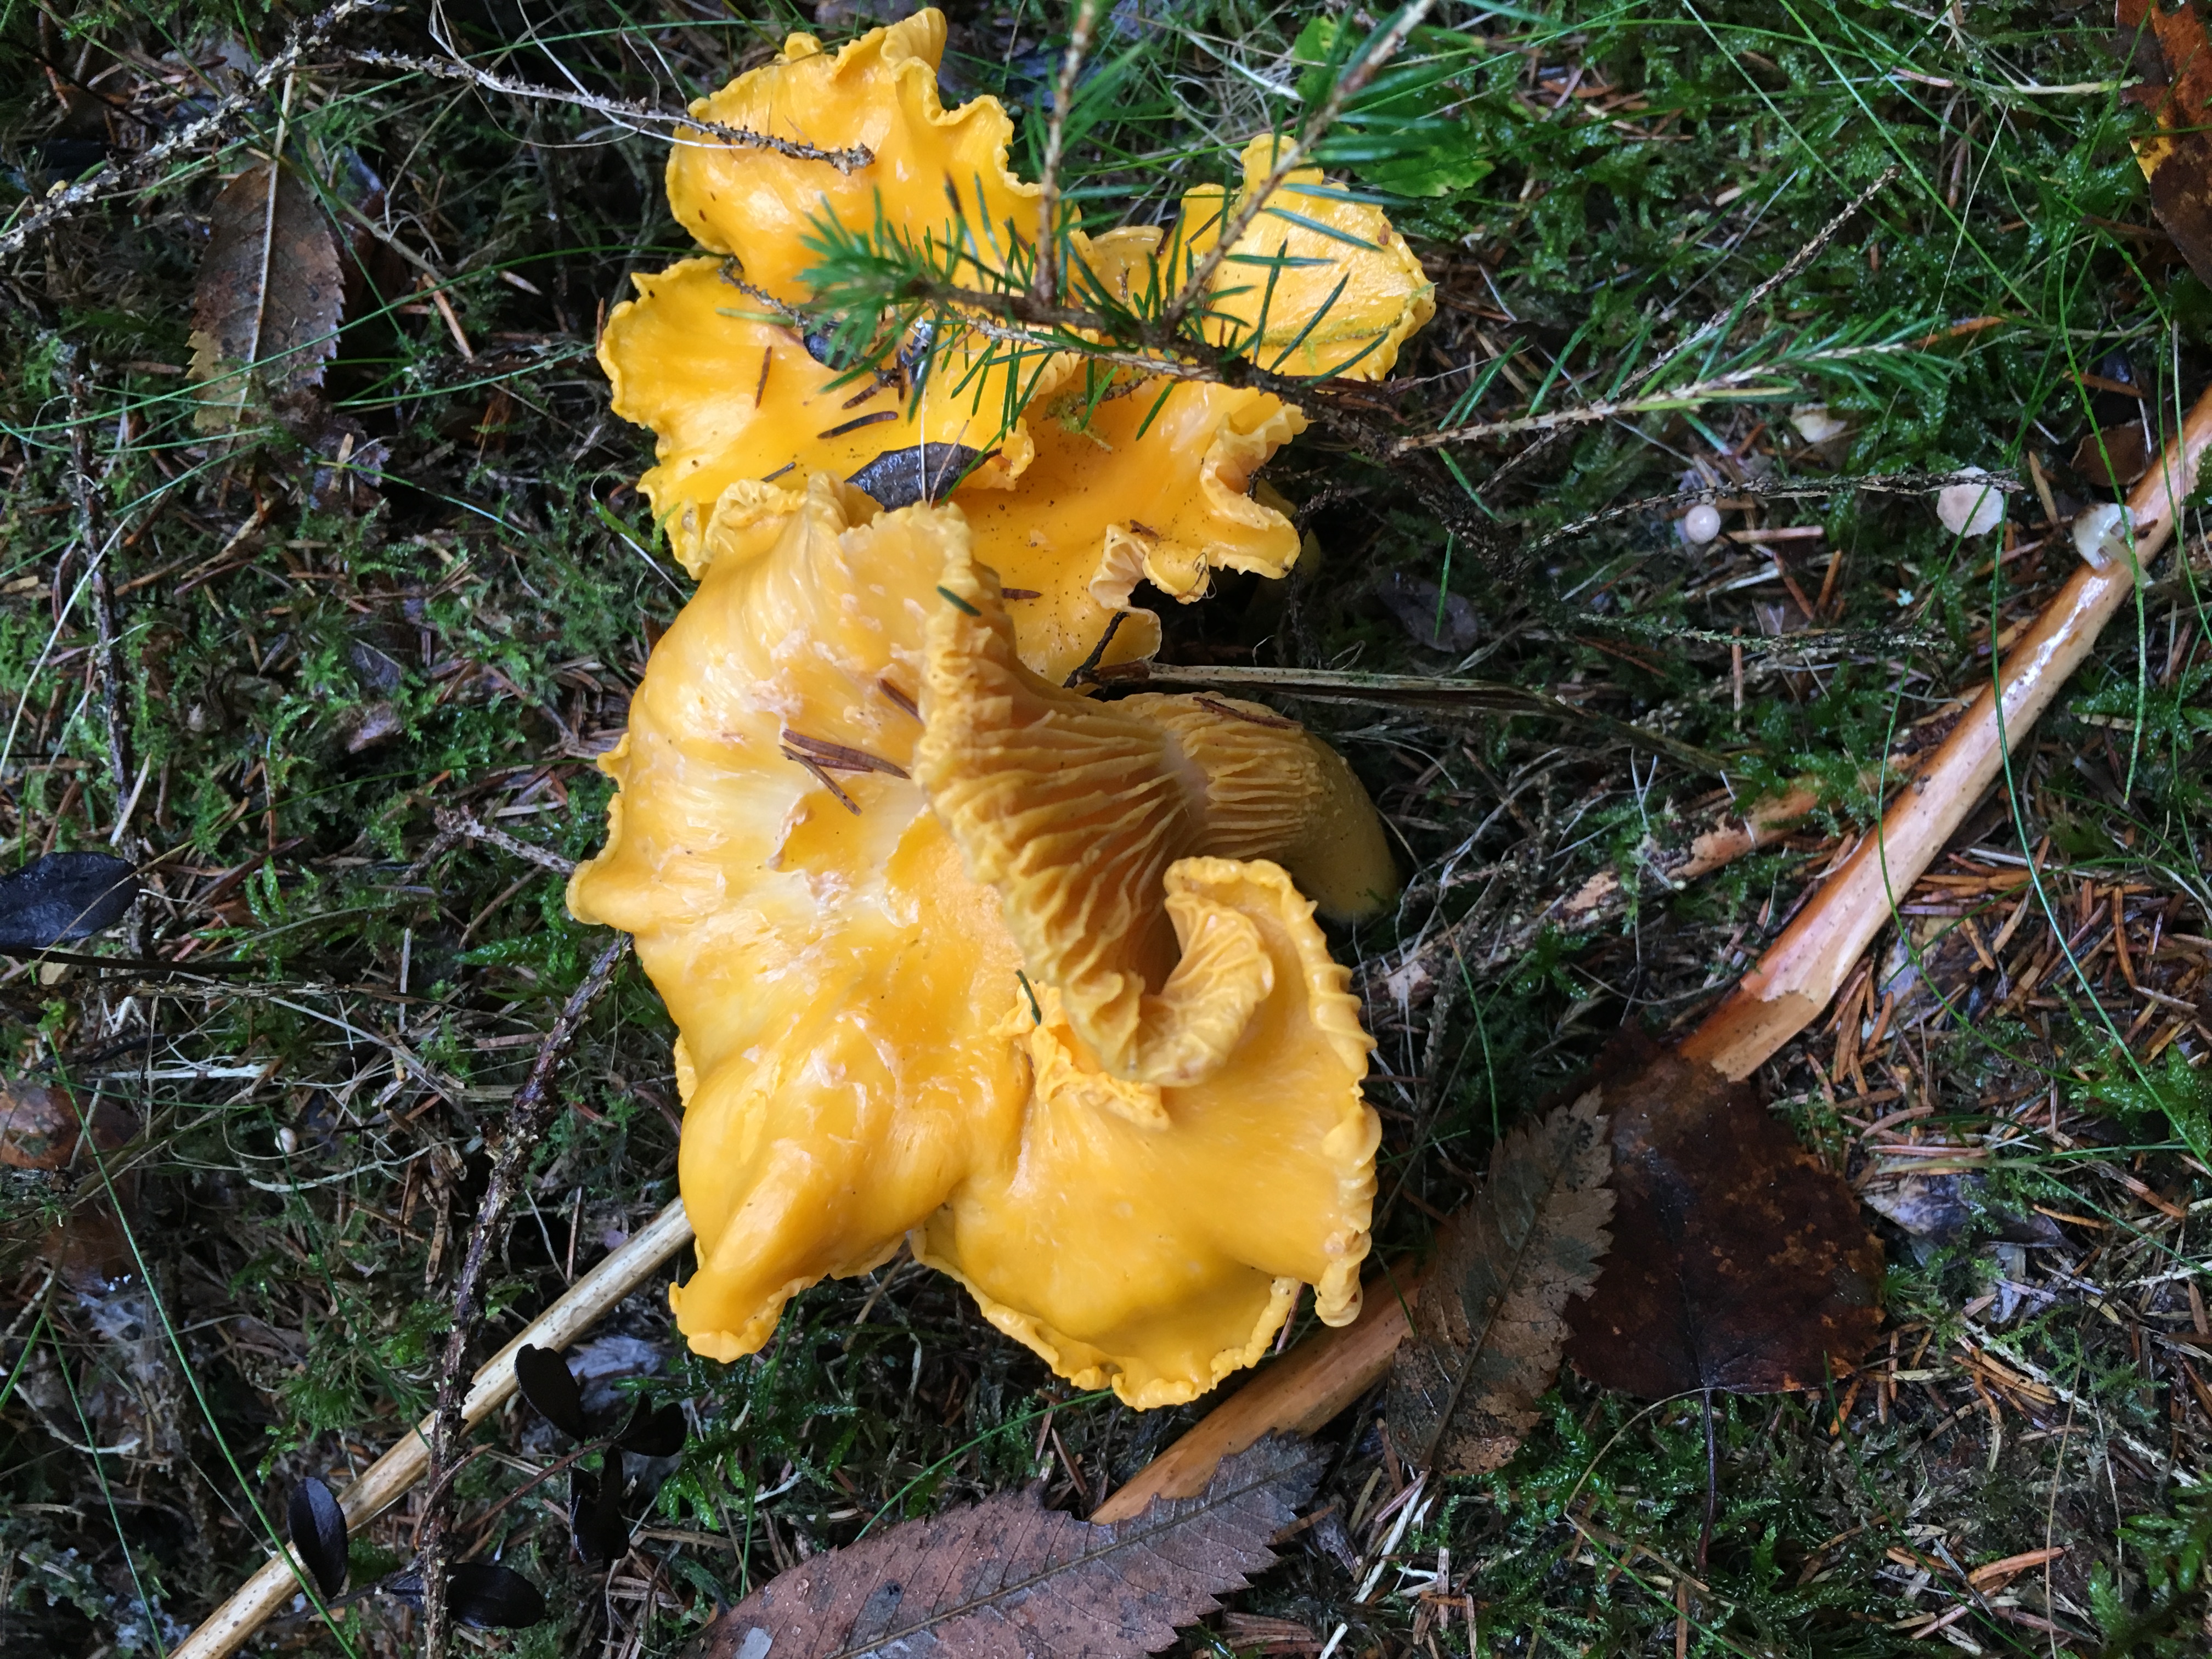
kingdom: Fungi
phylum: Basidiomycota
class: Agaricomycetes
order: Cantharellales
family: Hydnaceae
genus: Cantharellus
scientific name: Cantharellus cibarius
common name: Chanterelle
